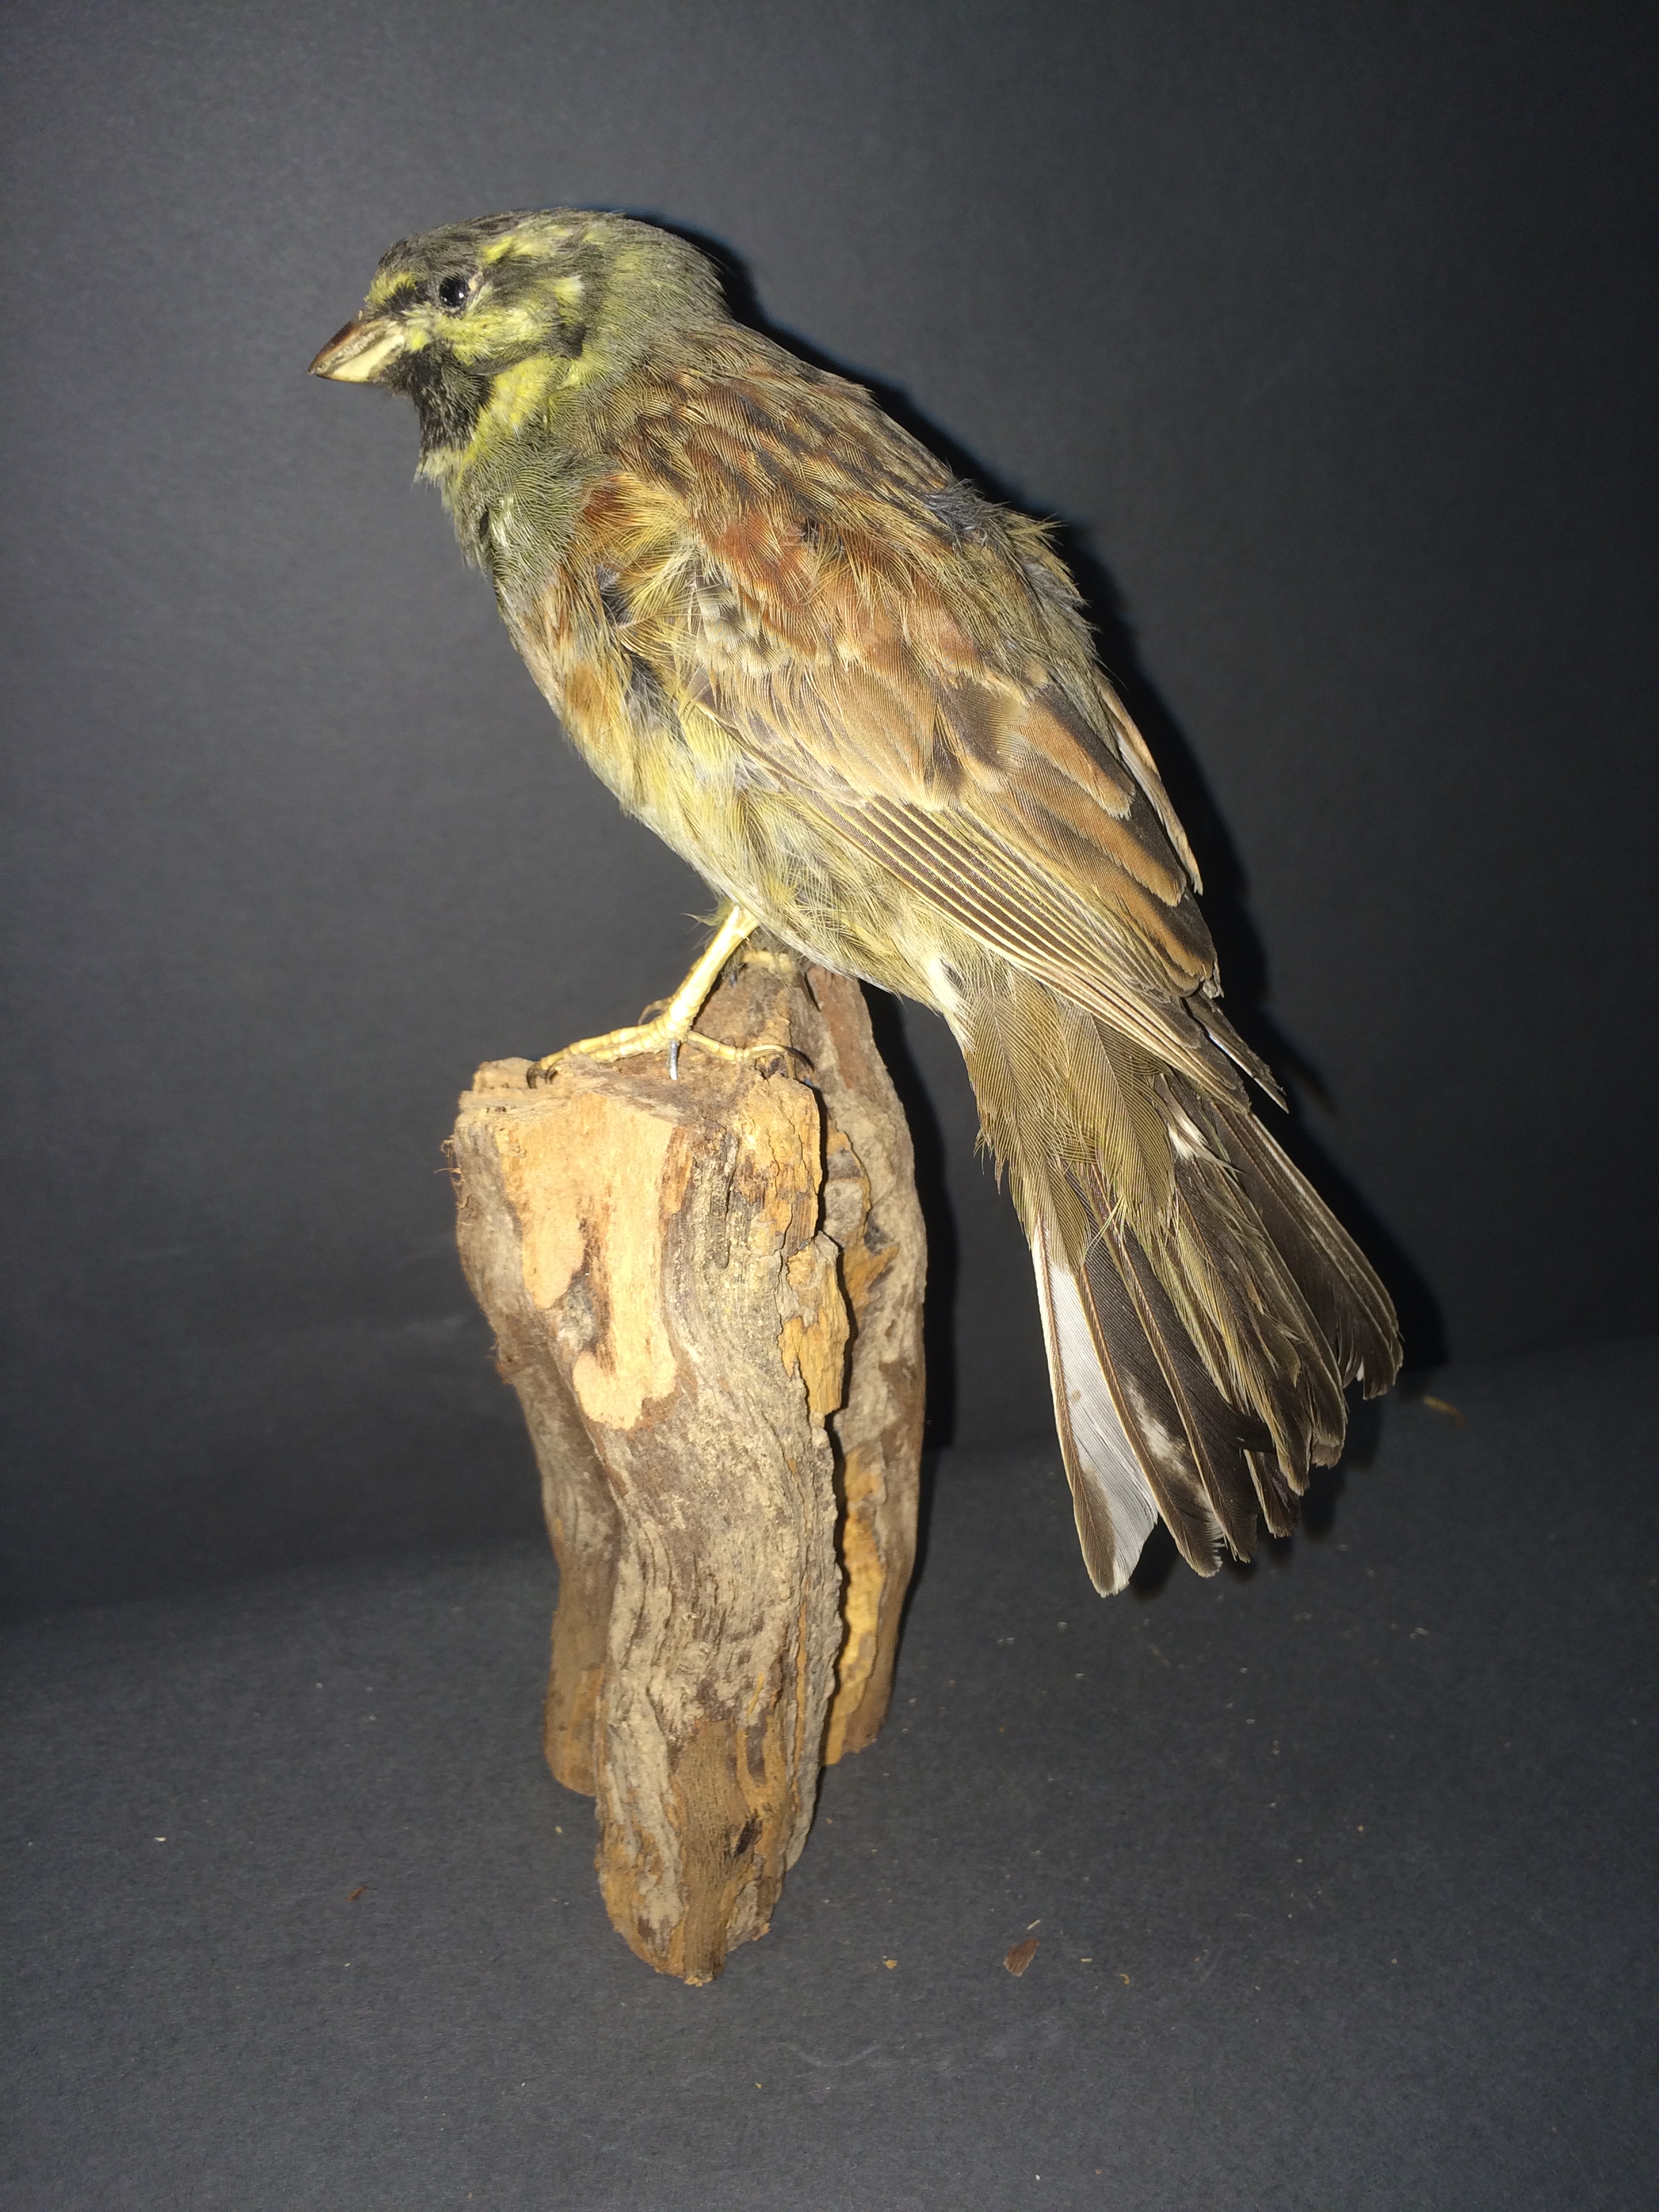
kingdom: Animalia
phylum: Chordata
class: Aves
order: Passeriformes
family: Emberizidae
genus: Emberiza
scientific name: Emberiza cirlus
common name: Cirl bunting
